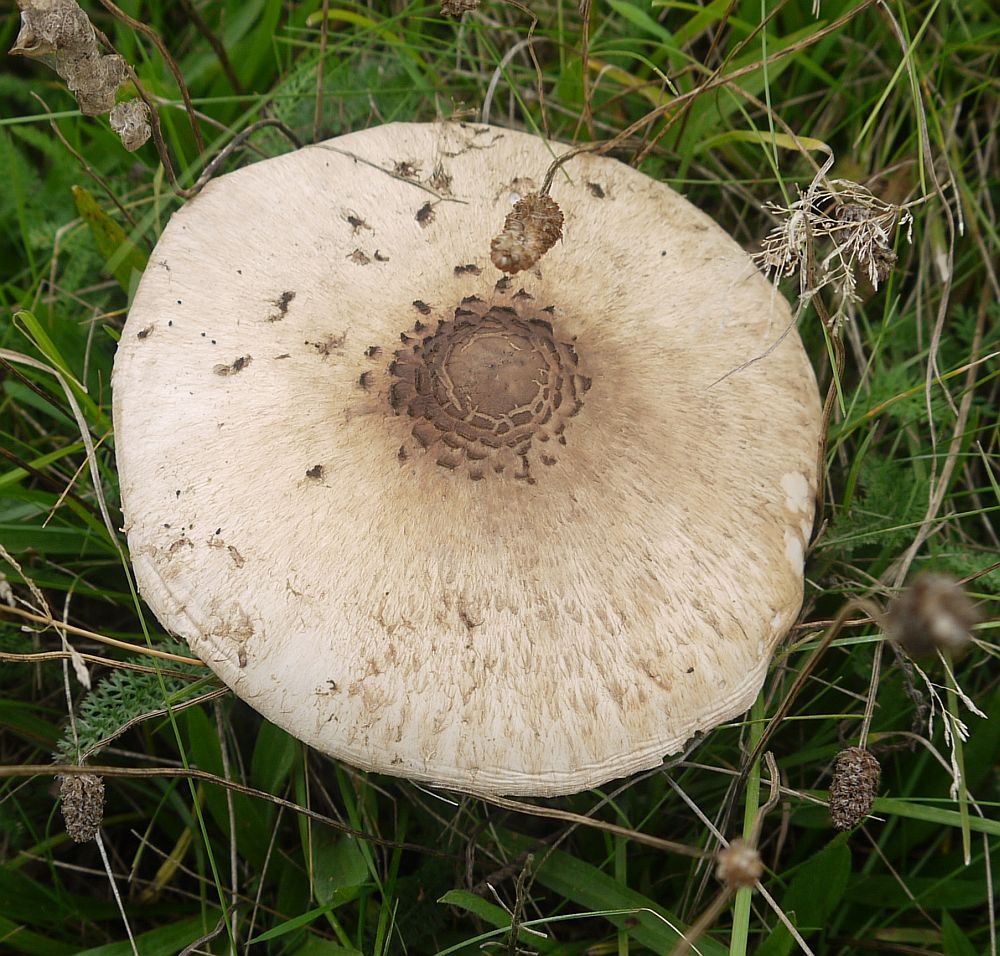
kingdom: Fungi
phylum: Basidiomycota
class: Agaricomycetes
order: Agaricales
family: Agaricaceae
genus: Macrolepiota
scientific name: Macrolepiota procera
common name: stor kæmpeparasolhat
